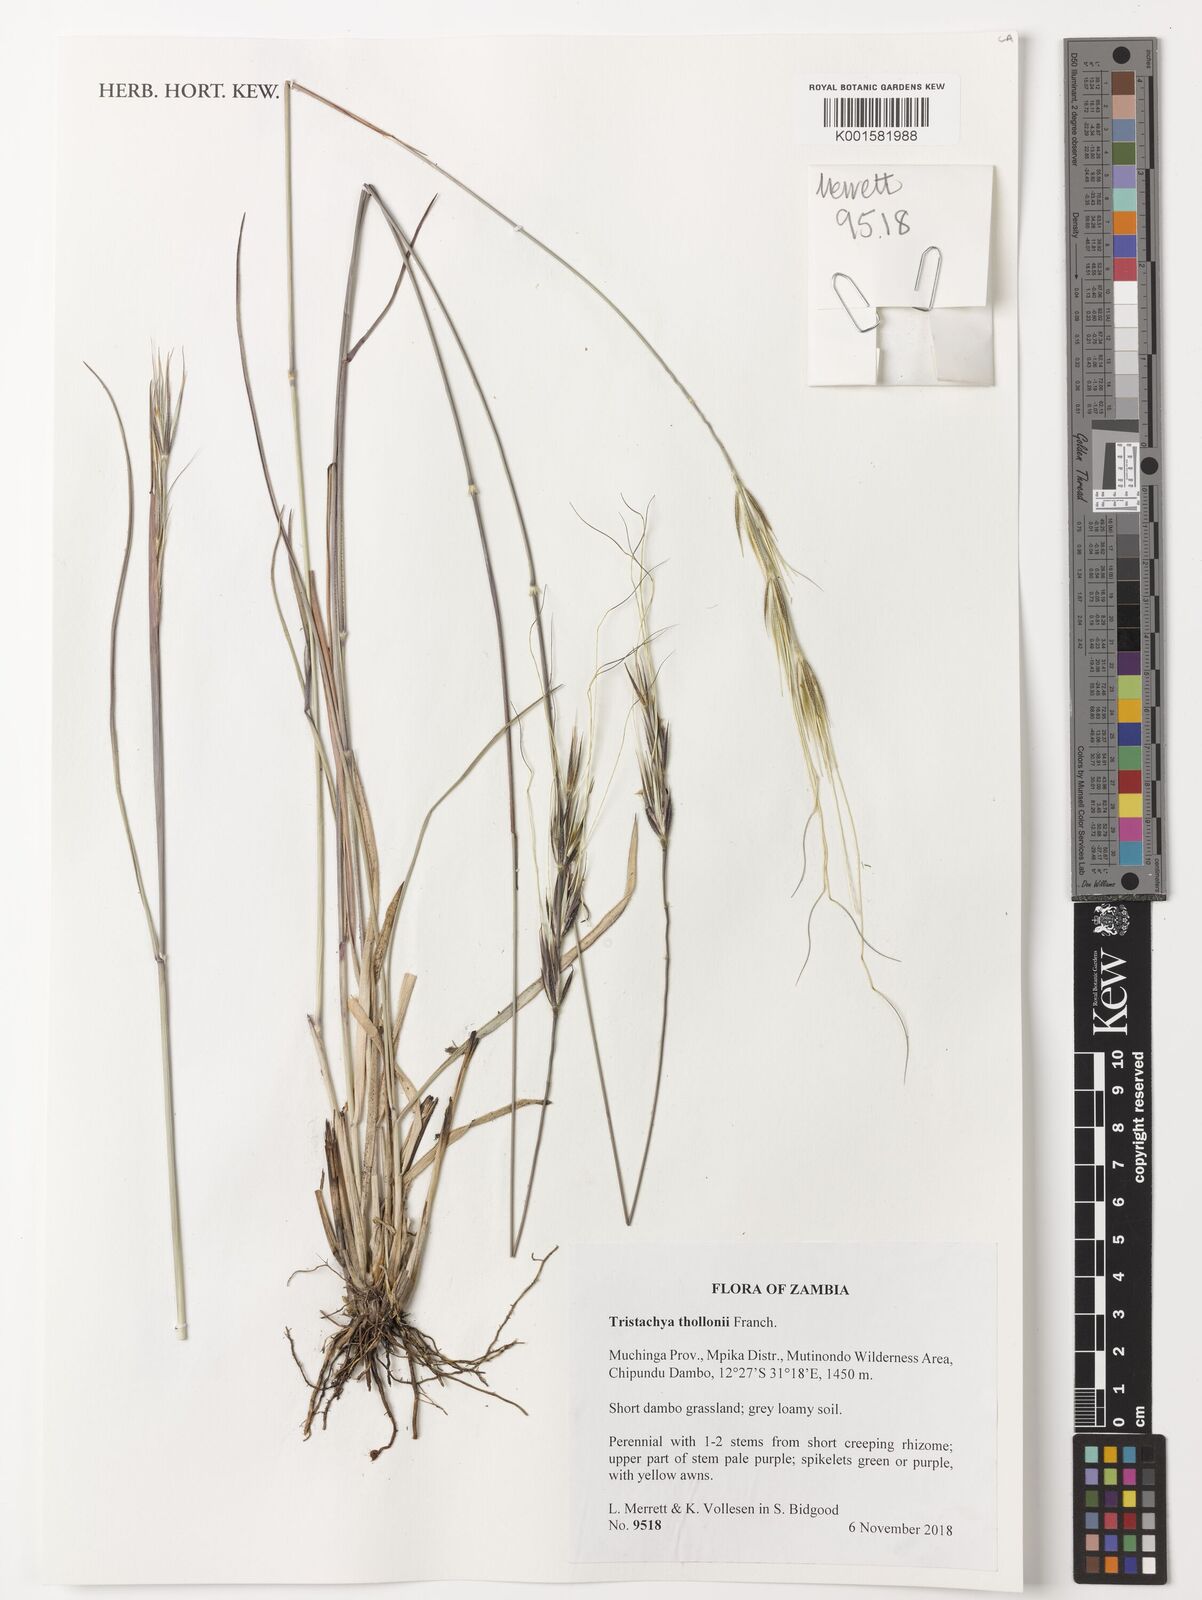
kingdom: Plantae
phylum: Tracheophyta
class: Liliopsida
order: Poales
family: Poaceae
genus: Tristachya
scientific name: Tristachya thollonii
